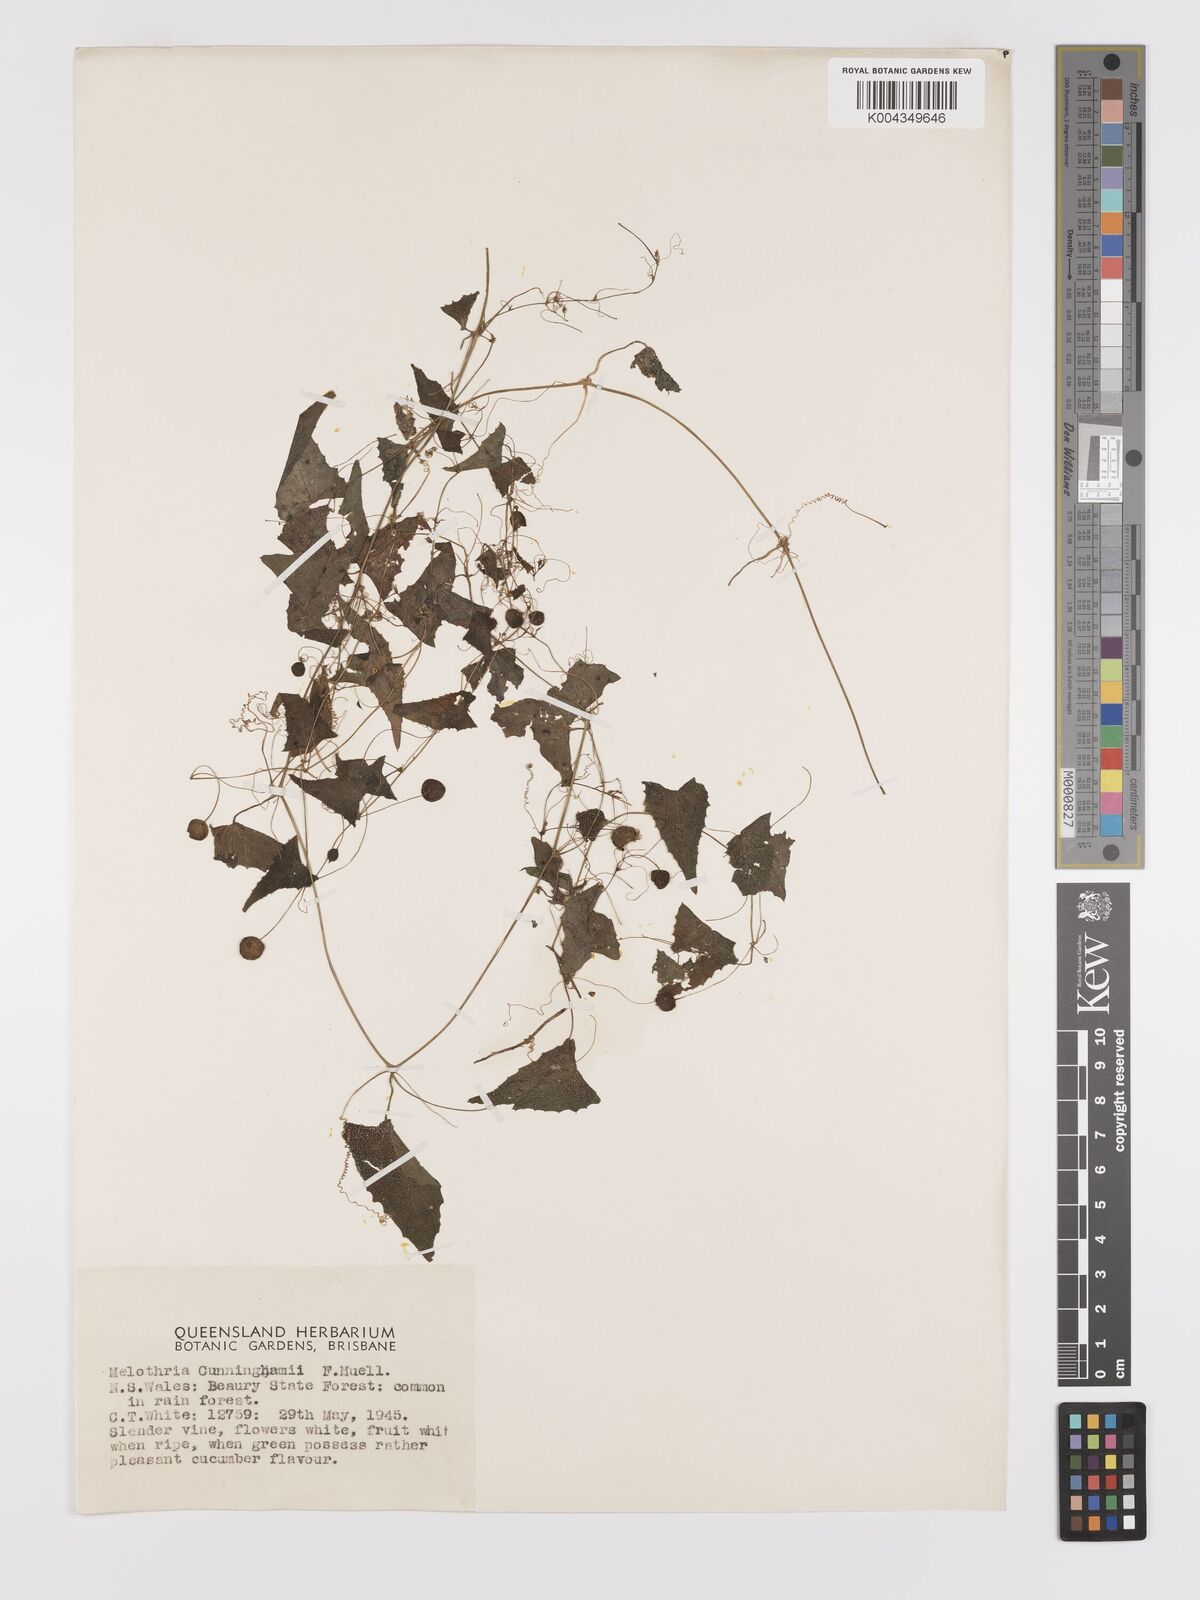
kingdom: Plantae
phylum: Tracheophyta
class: Magnoliopsida
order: Cucurbitales
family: Cucurbitaceae
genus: Zehneria
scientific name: Zehneria cunninghamii
